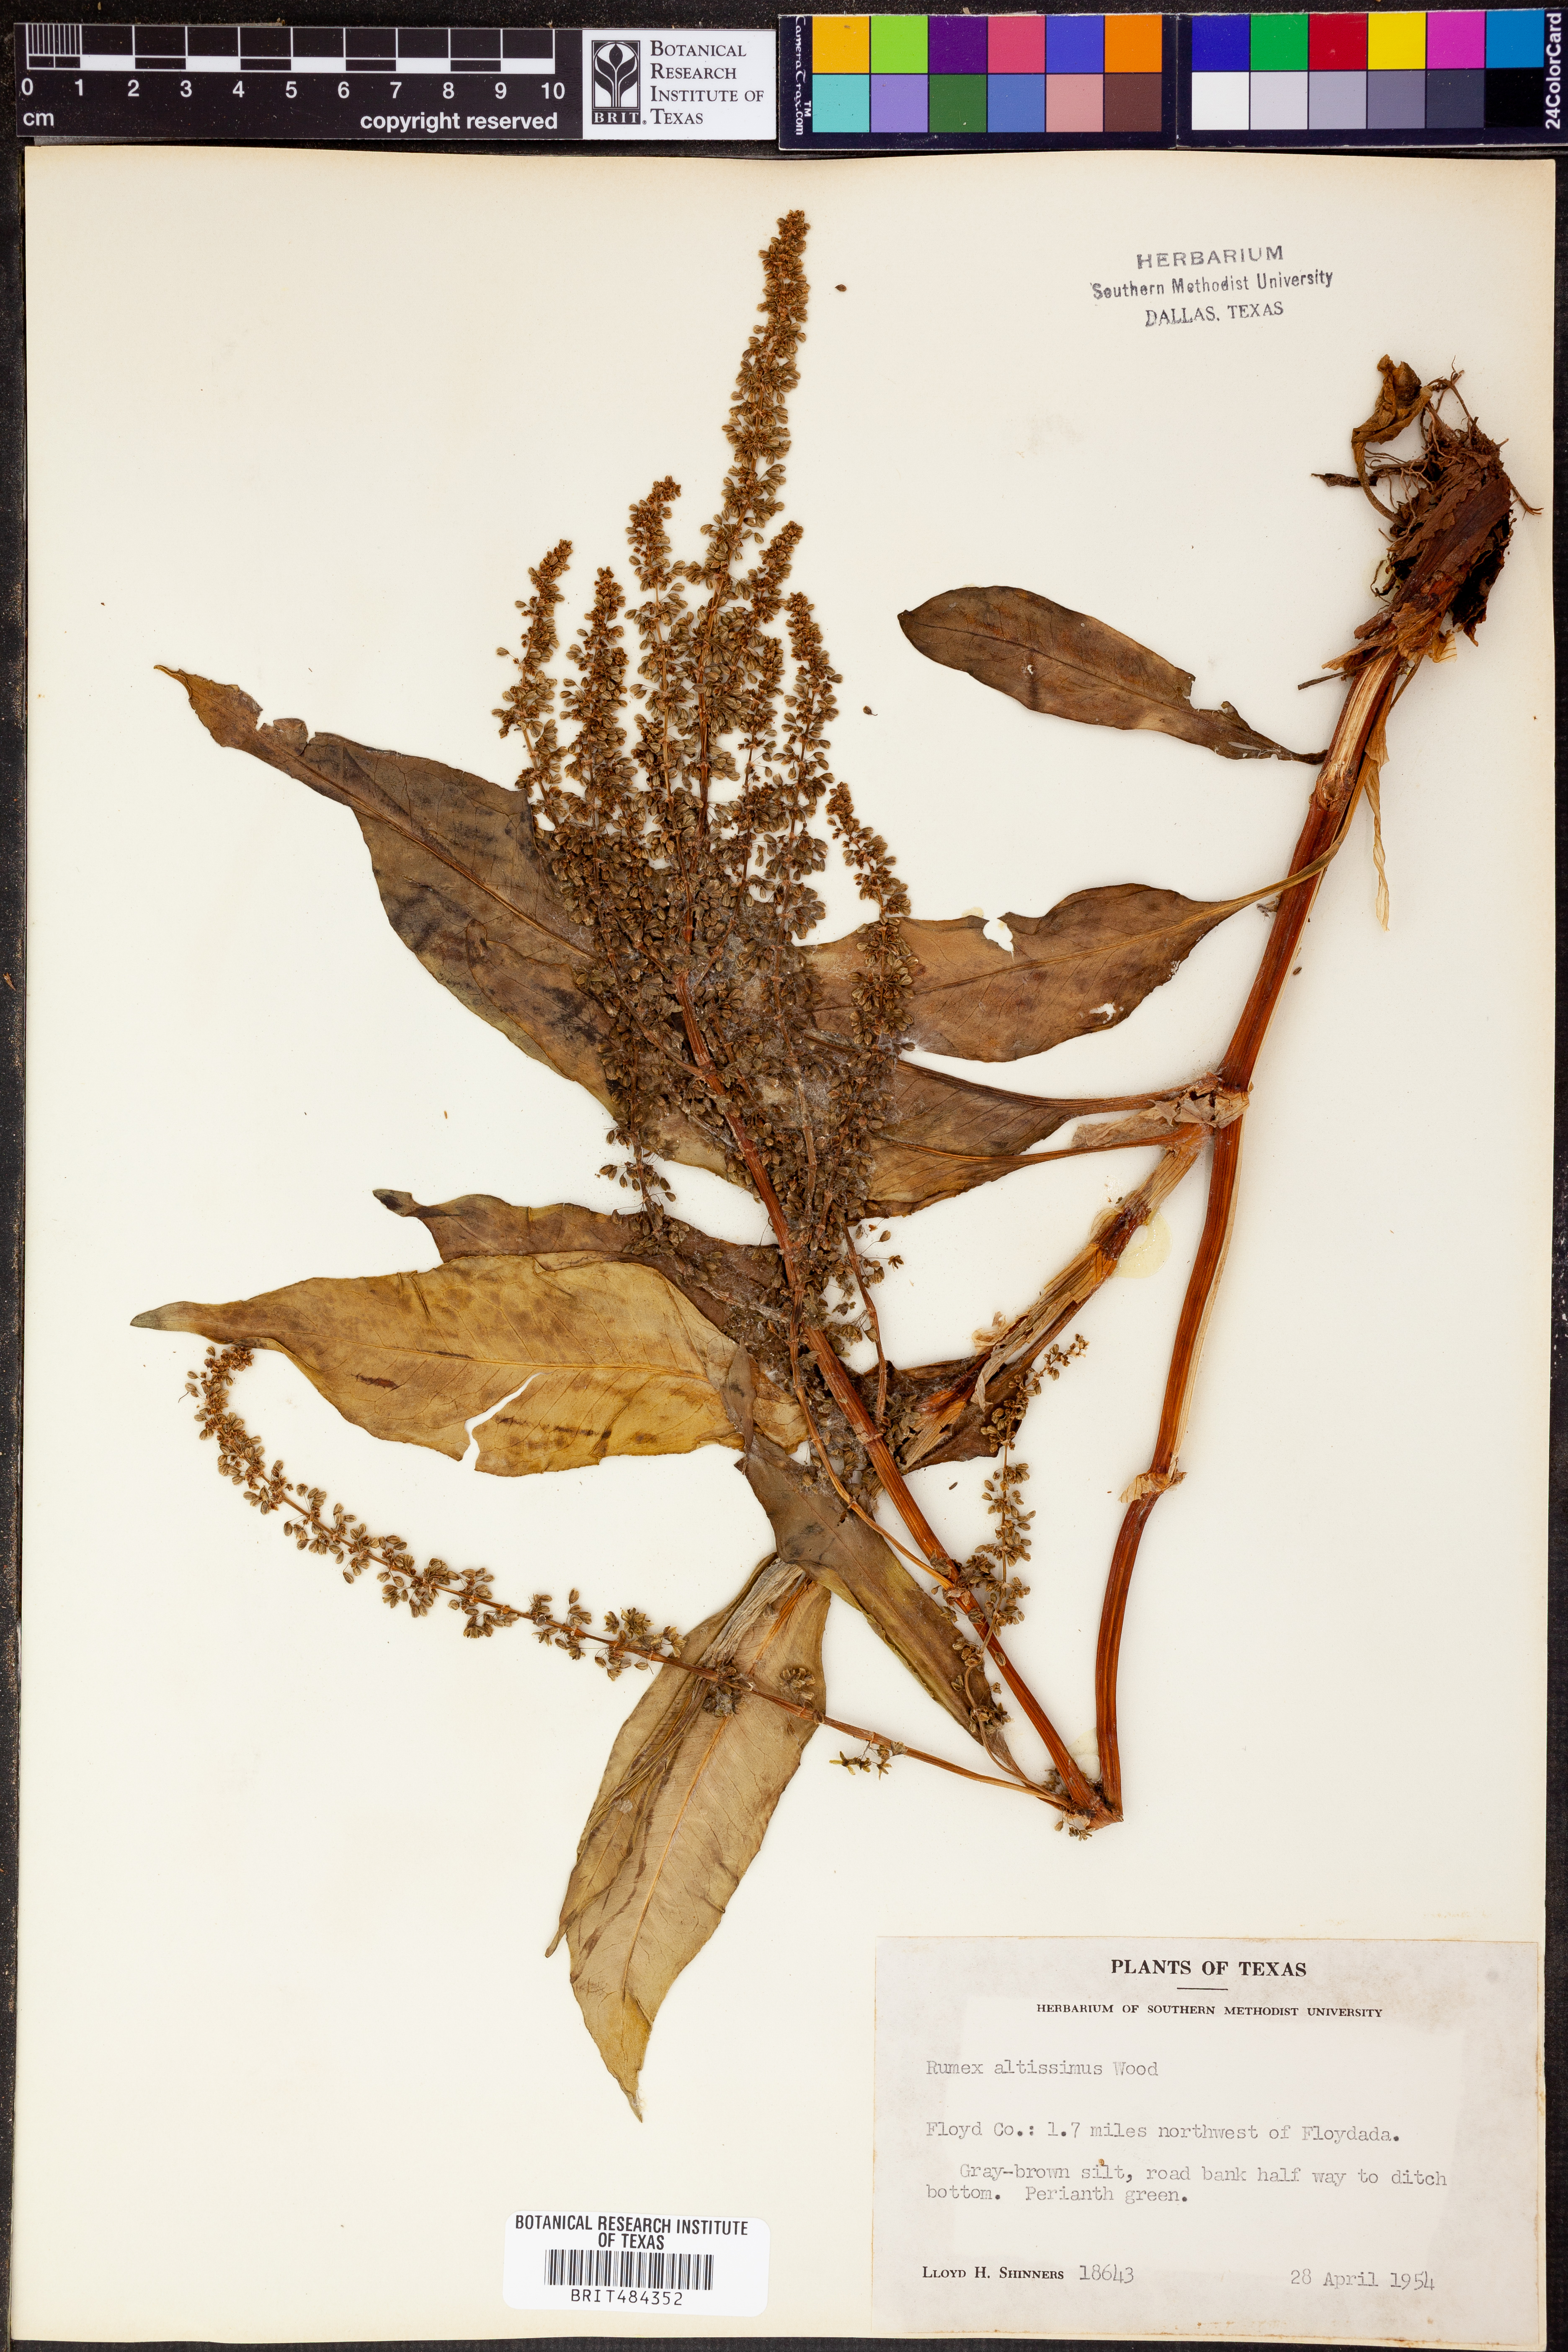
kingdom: Plantae
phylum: Tracheophyta
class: Magnoliopsida
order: Caryophyllales
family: Polygonaceae
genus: Rumex
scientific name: Rumex altissimus
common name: Smooth dock
